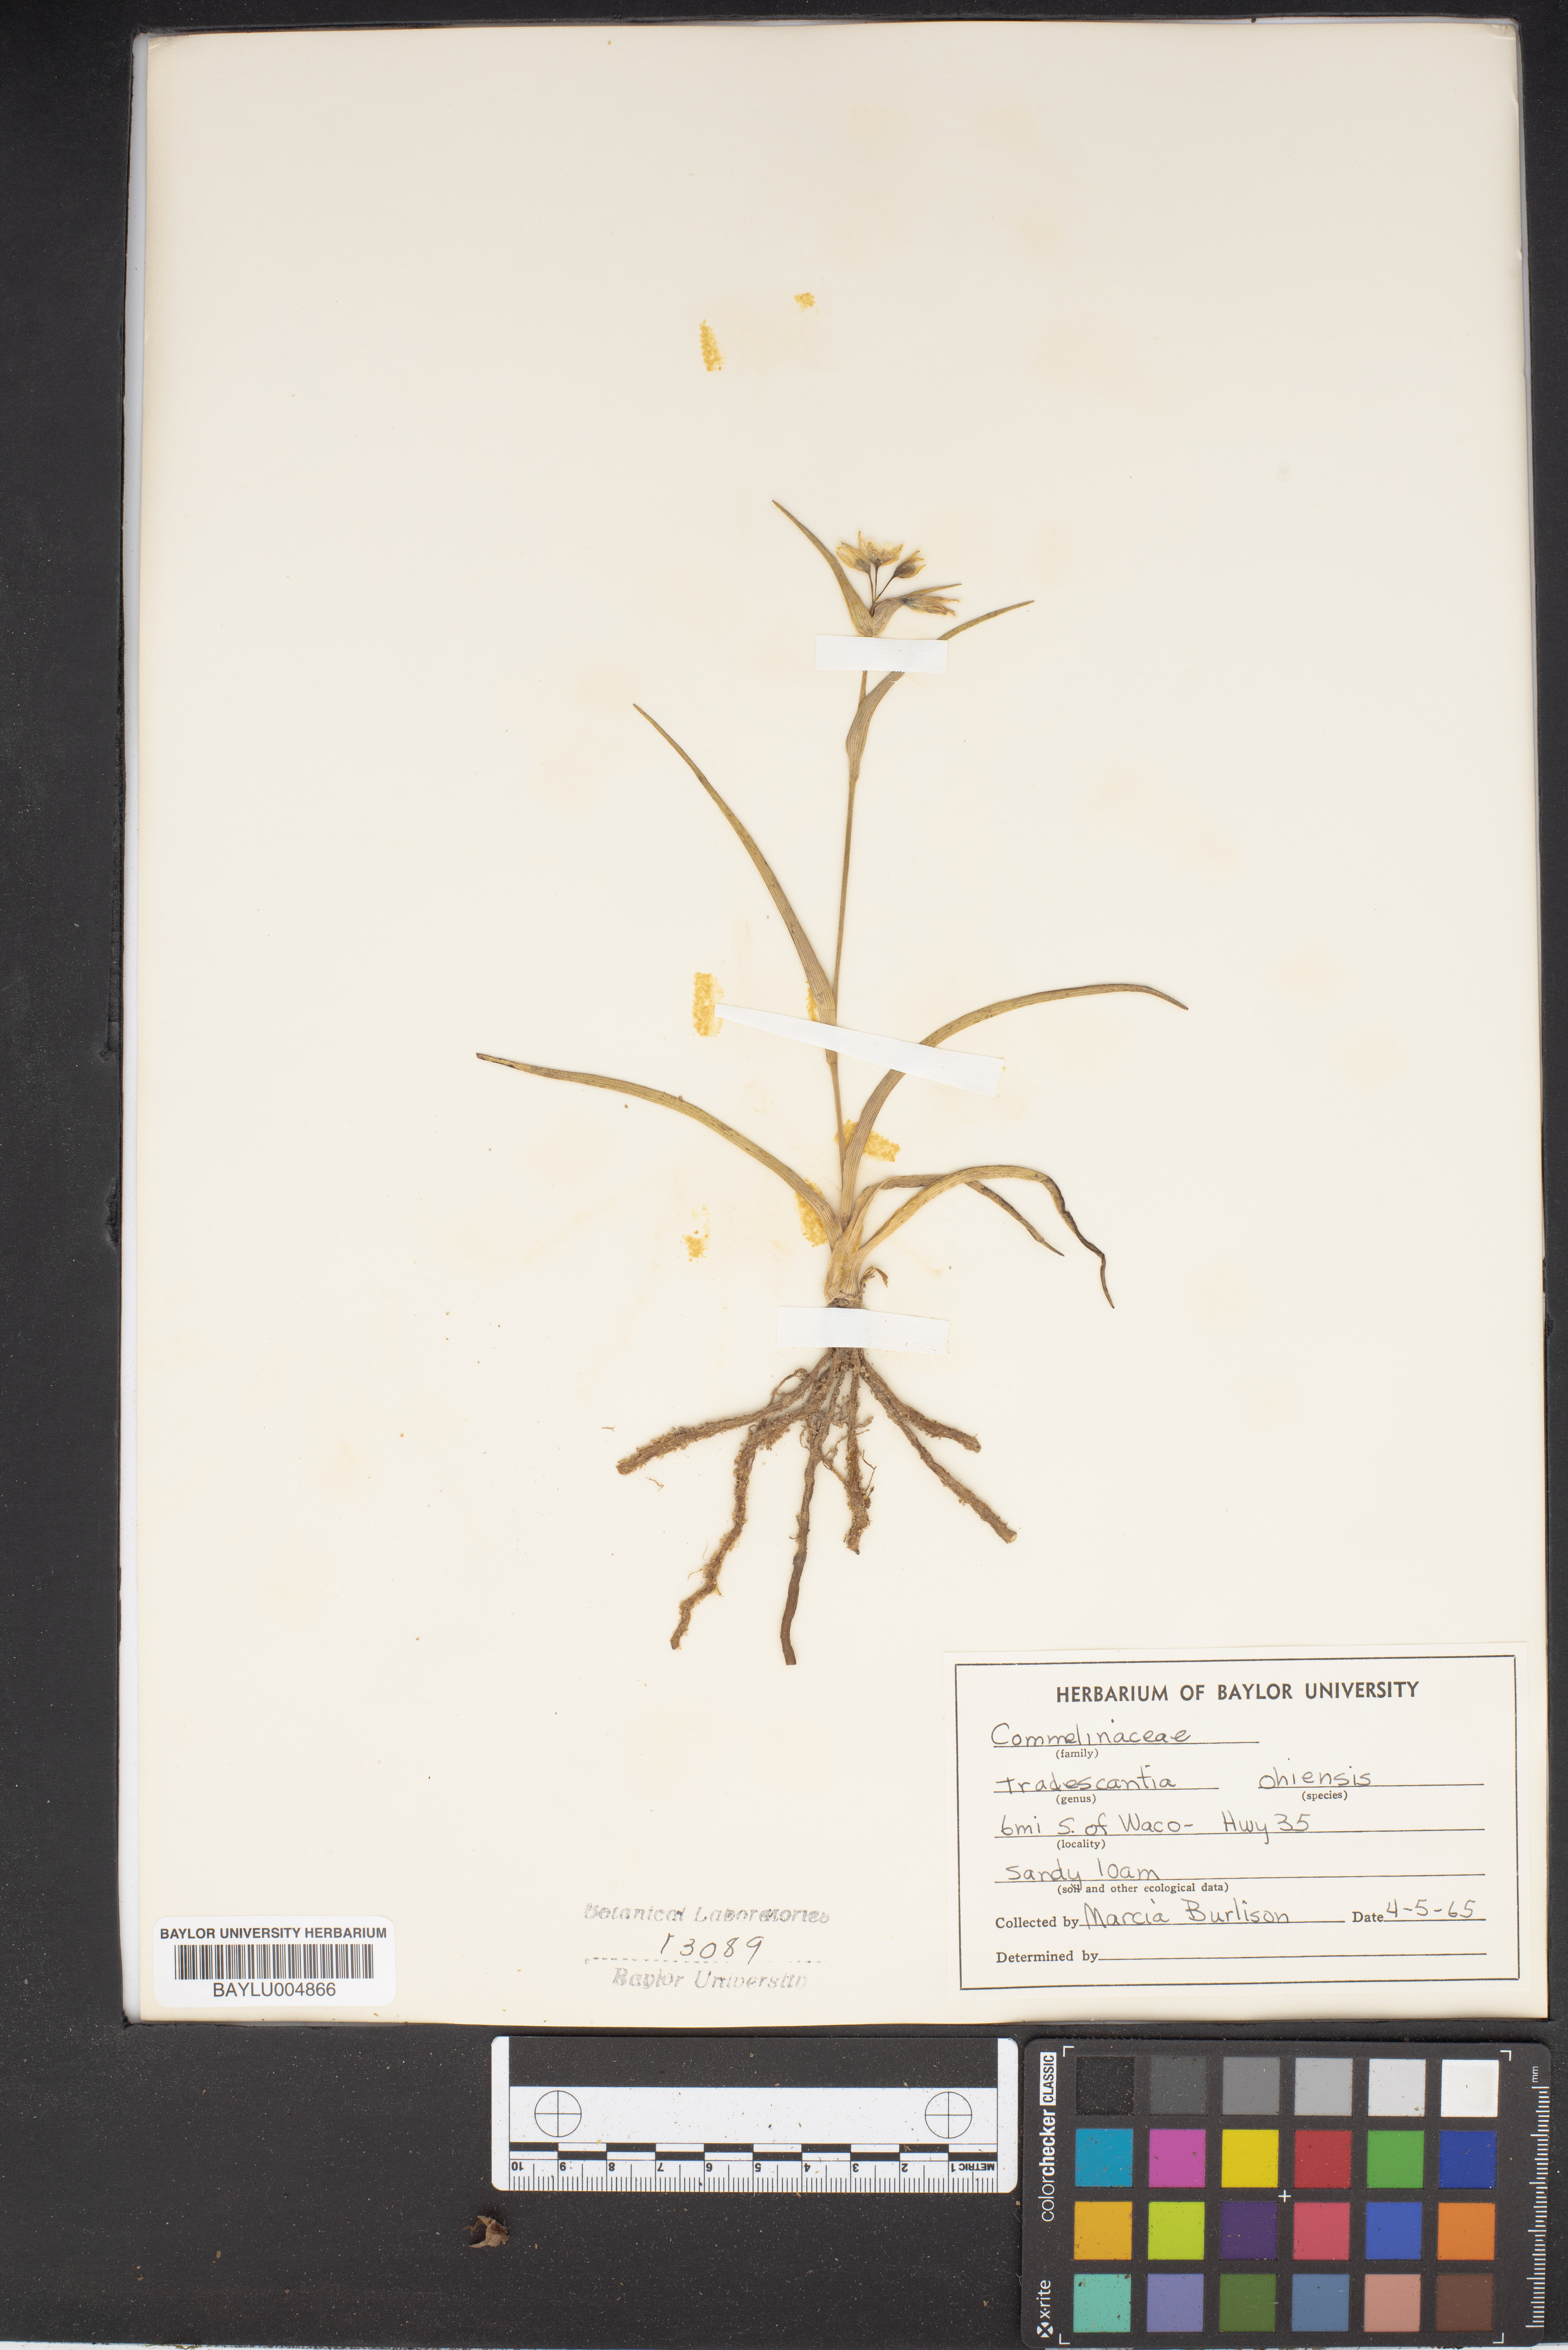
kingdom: Plantae
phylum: Tracheophyta
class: Liliopsida
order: Commelinales
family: Commelinaceae
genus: Tradescantia
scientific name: Tradescantia ohiensis
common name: Ohio spiderwort
